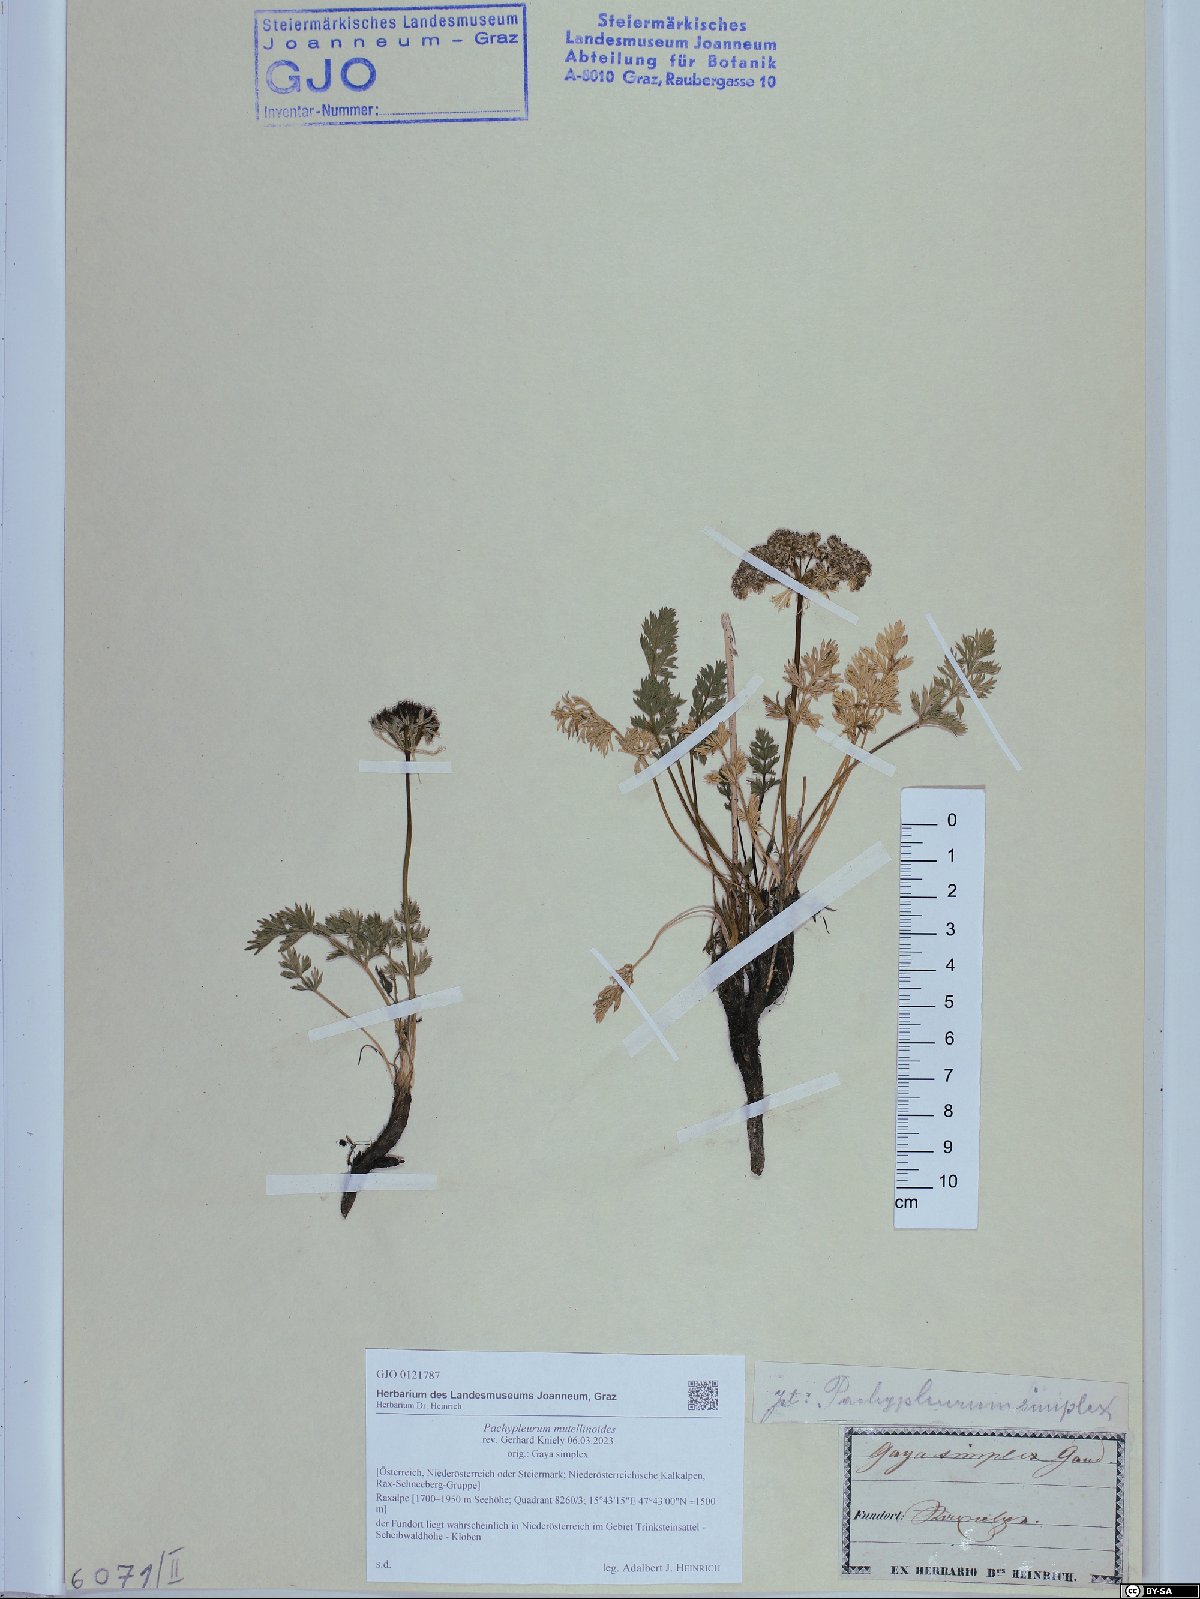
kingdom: Plantae
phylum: Tracheophyta
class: Magnoliopsida
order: Apiales
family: Apiaceae
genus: Pachypleurum
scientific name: Pachypleurum mutellinoides
